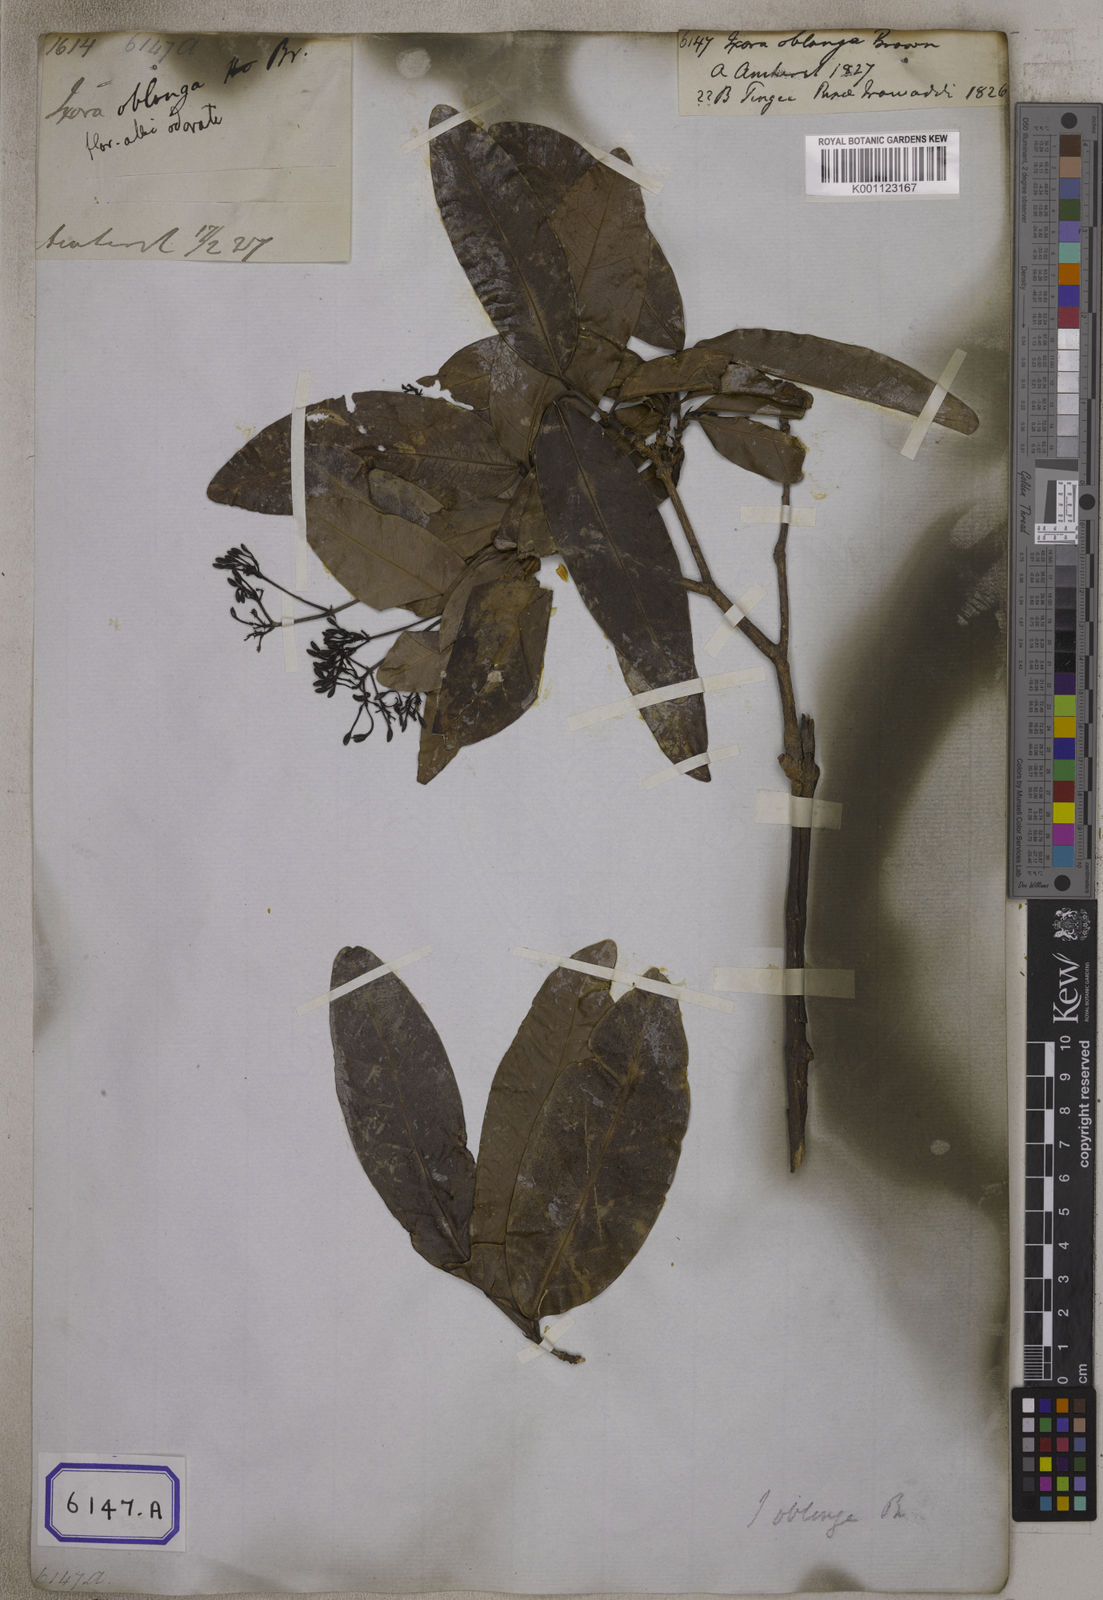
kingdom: Plantae
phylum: Tracheophyta
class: Magnoliopsida
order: Gentianales
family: Rubiaceae
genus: Ixora
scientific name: Ixora
